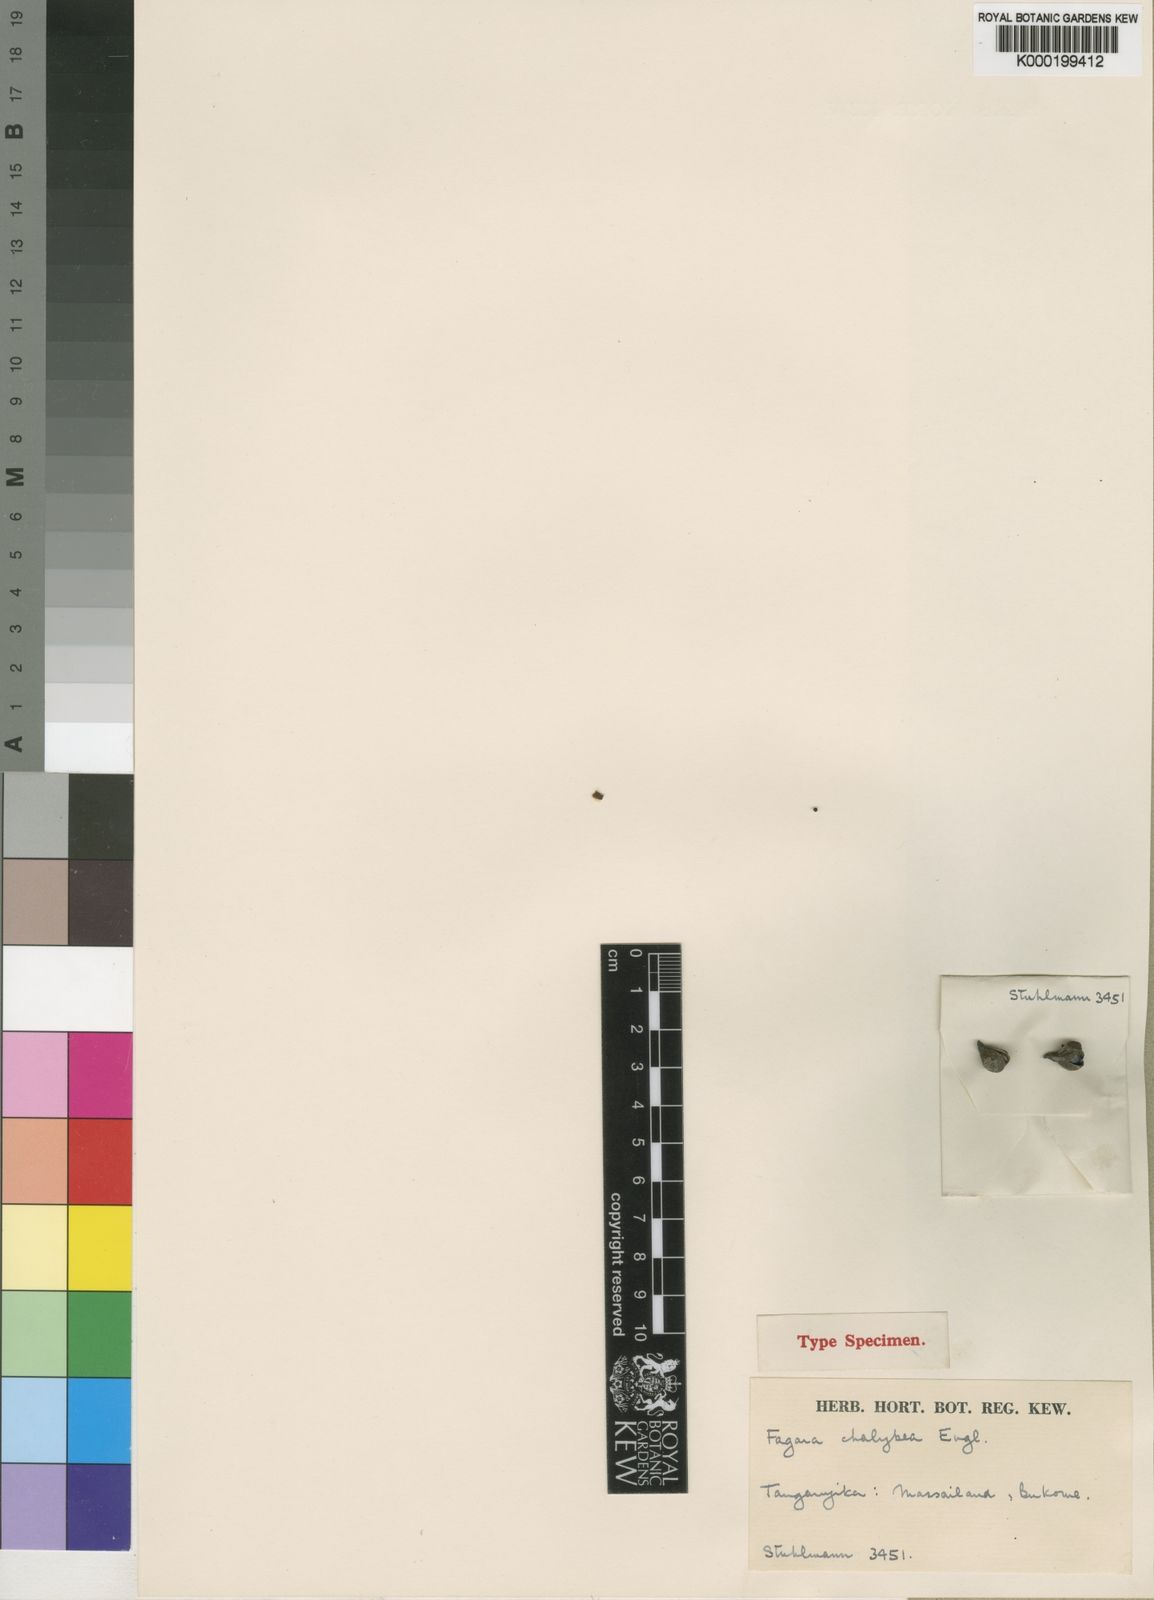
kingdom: Plantae
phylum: Tracheophyta
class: Magnoliopsida
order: Sapindales
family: Rutaceae
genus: Zanthoxylum
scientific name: Zanthoxylum chalybaeum
